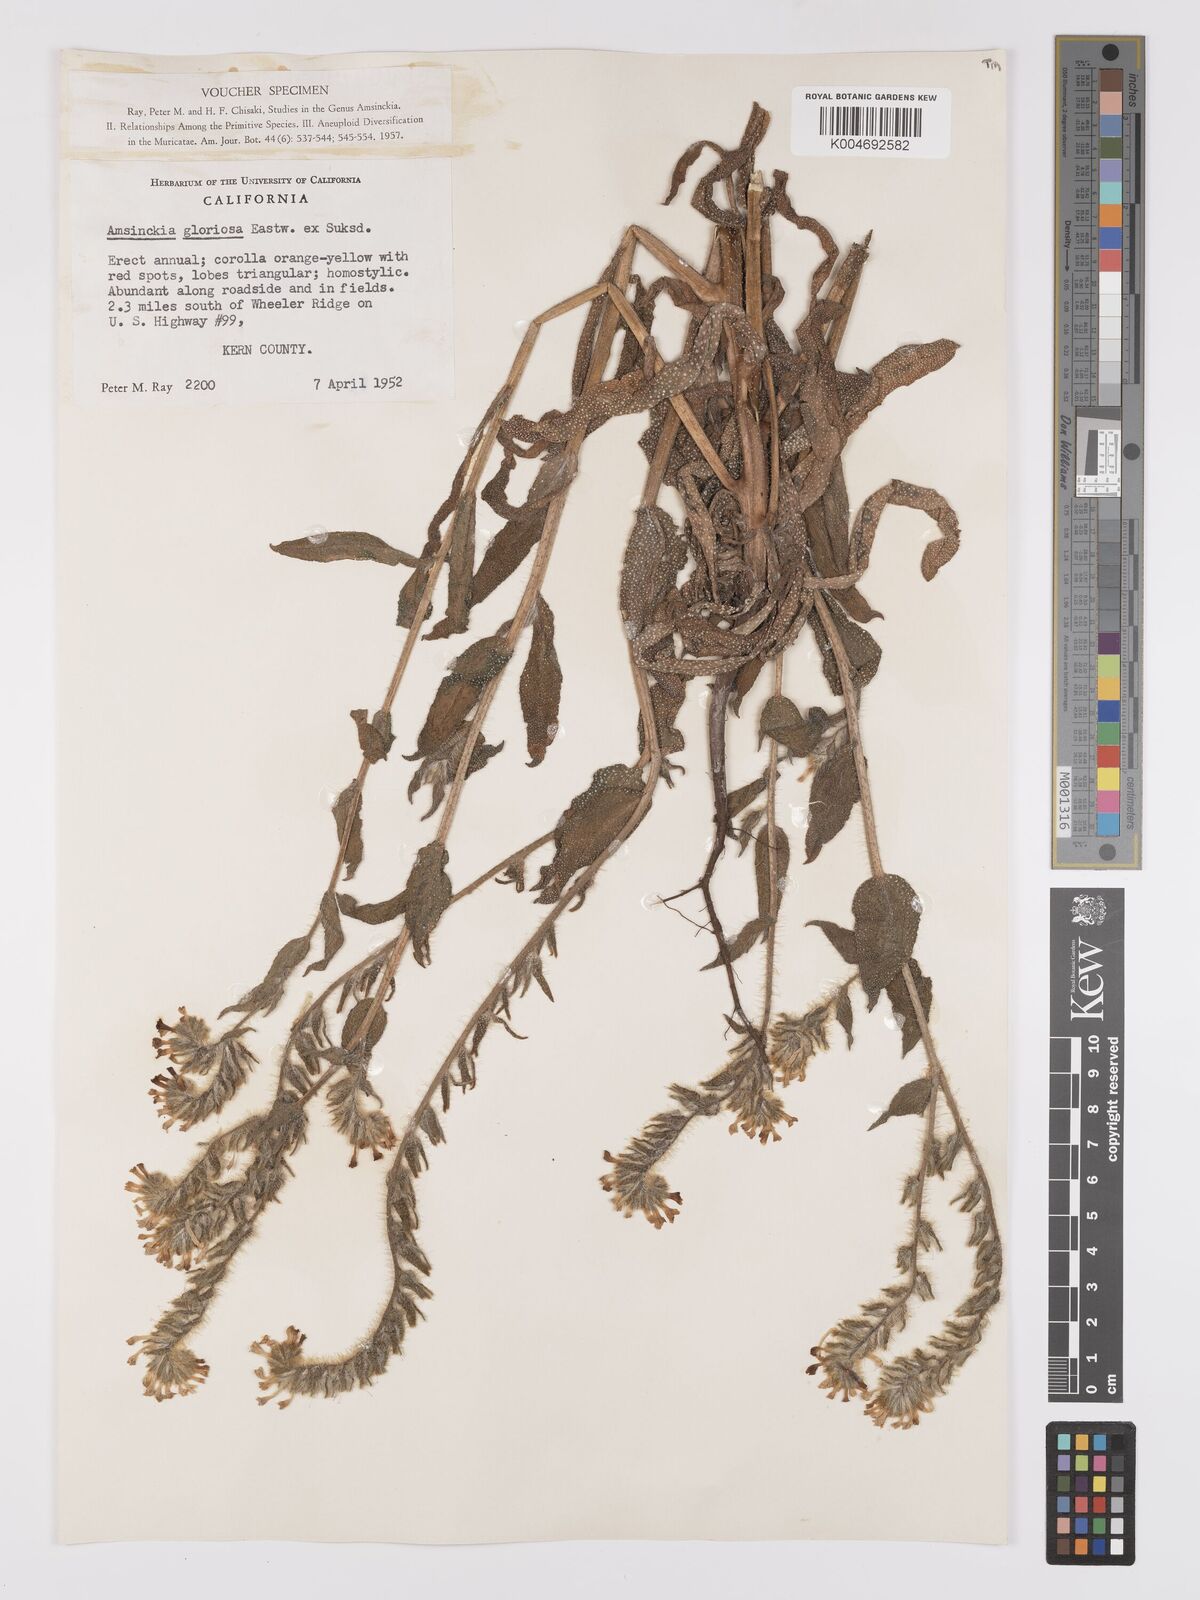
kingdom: Plantae
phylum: Tracheophyta
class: Magnoliopsida
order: Boraginales
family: Boraginaceae
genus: Amsinckia
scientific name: Amsinckia tessellata
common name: Tessellate fiddleneck
